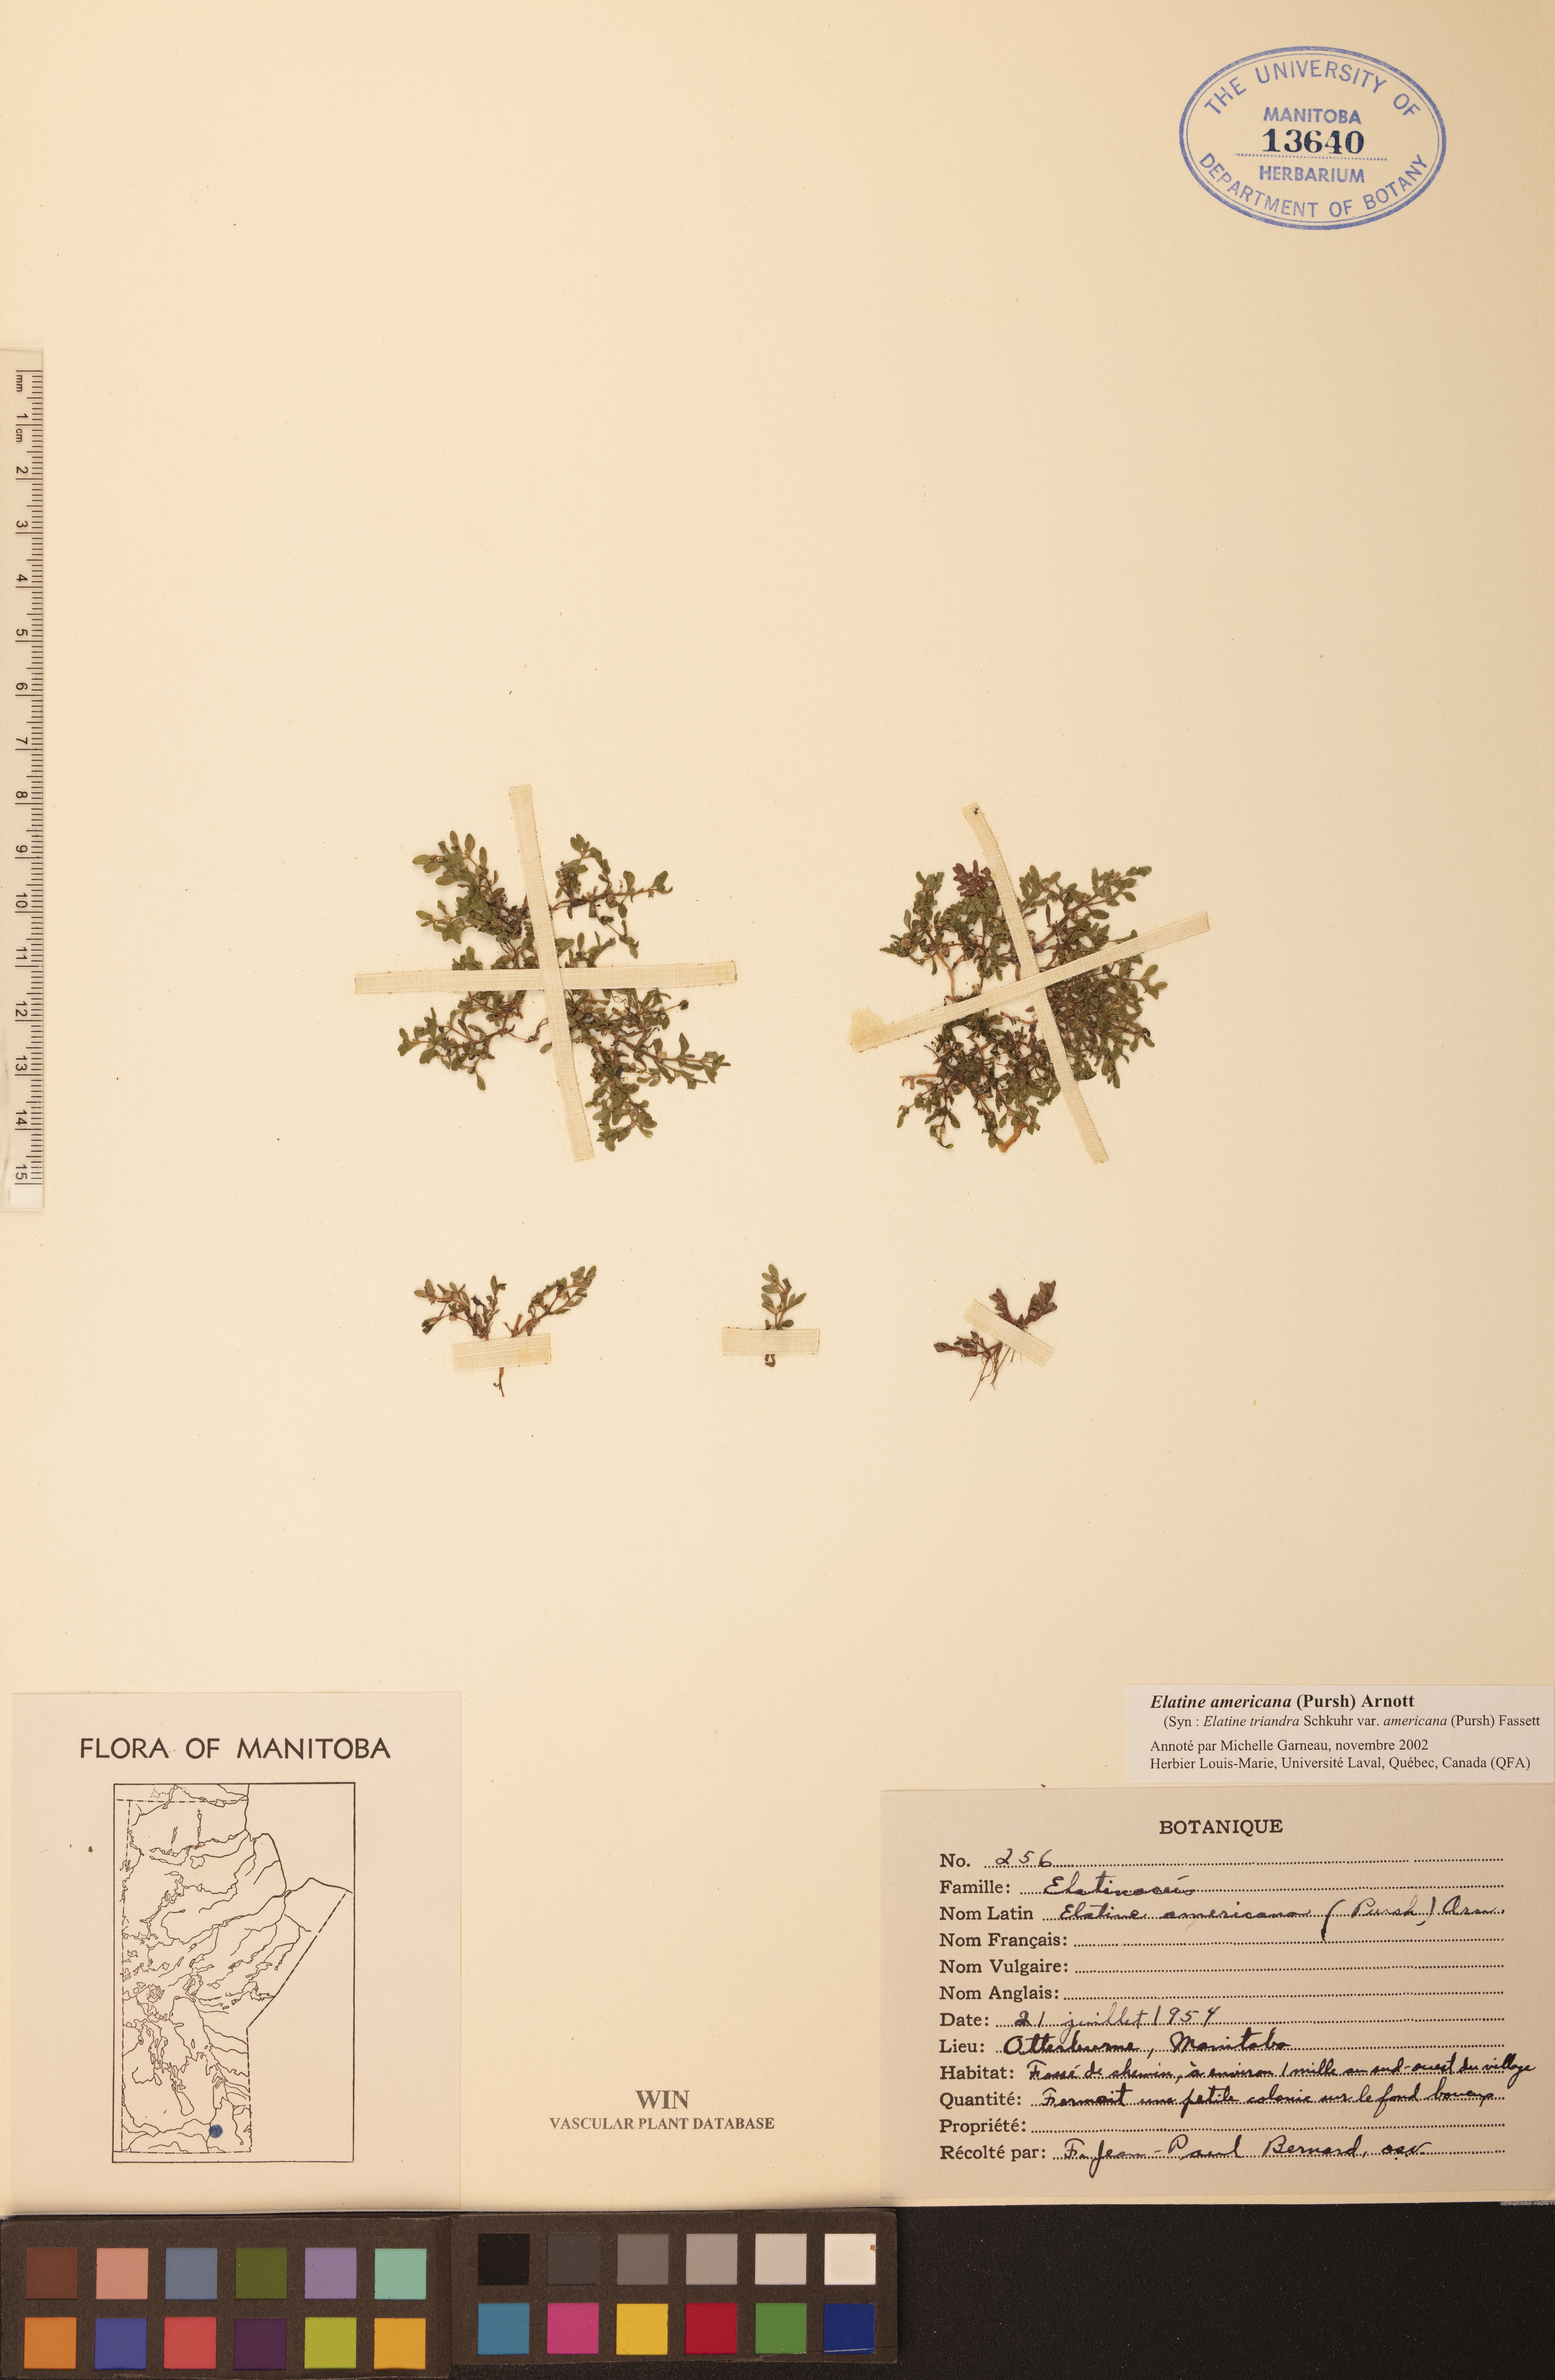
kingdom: Plantae
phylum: Tracheophyta
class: Magnoliopsida
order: Malpighiales
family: Elatinaceae
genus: Elatine
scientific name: Elatine americana
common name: American waterwort
